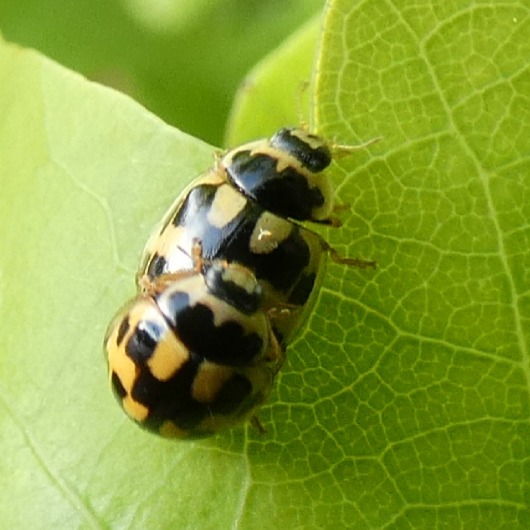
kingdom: Animalia
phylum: Arthropoda
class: Insecta
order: Coleoptera
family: Coccinellidae
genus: Propylaea
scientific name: Propylaea quatuordecimpunctata
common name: Skakbræt
